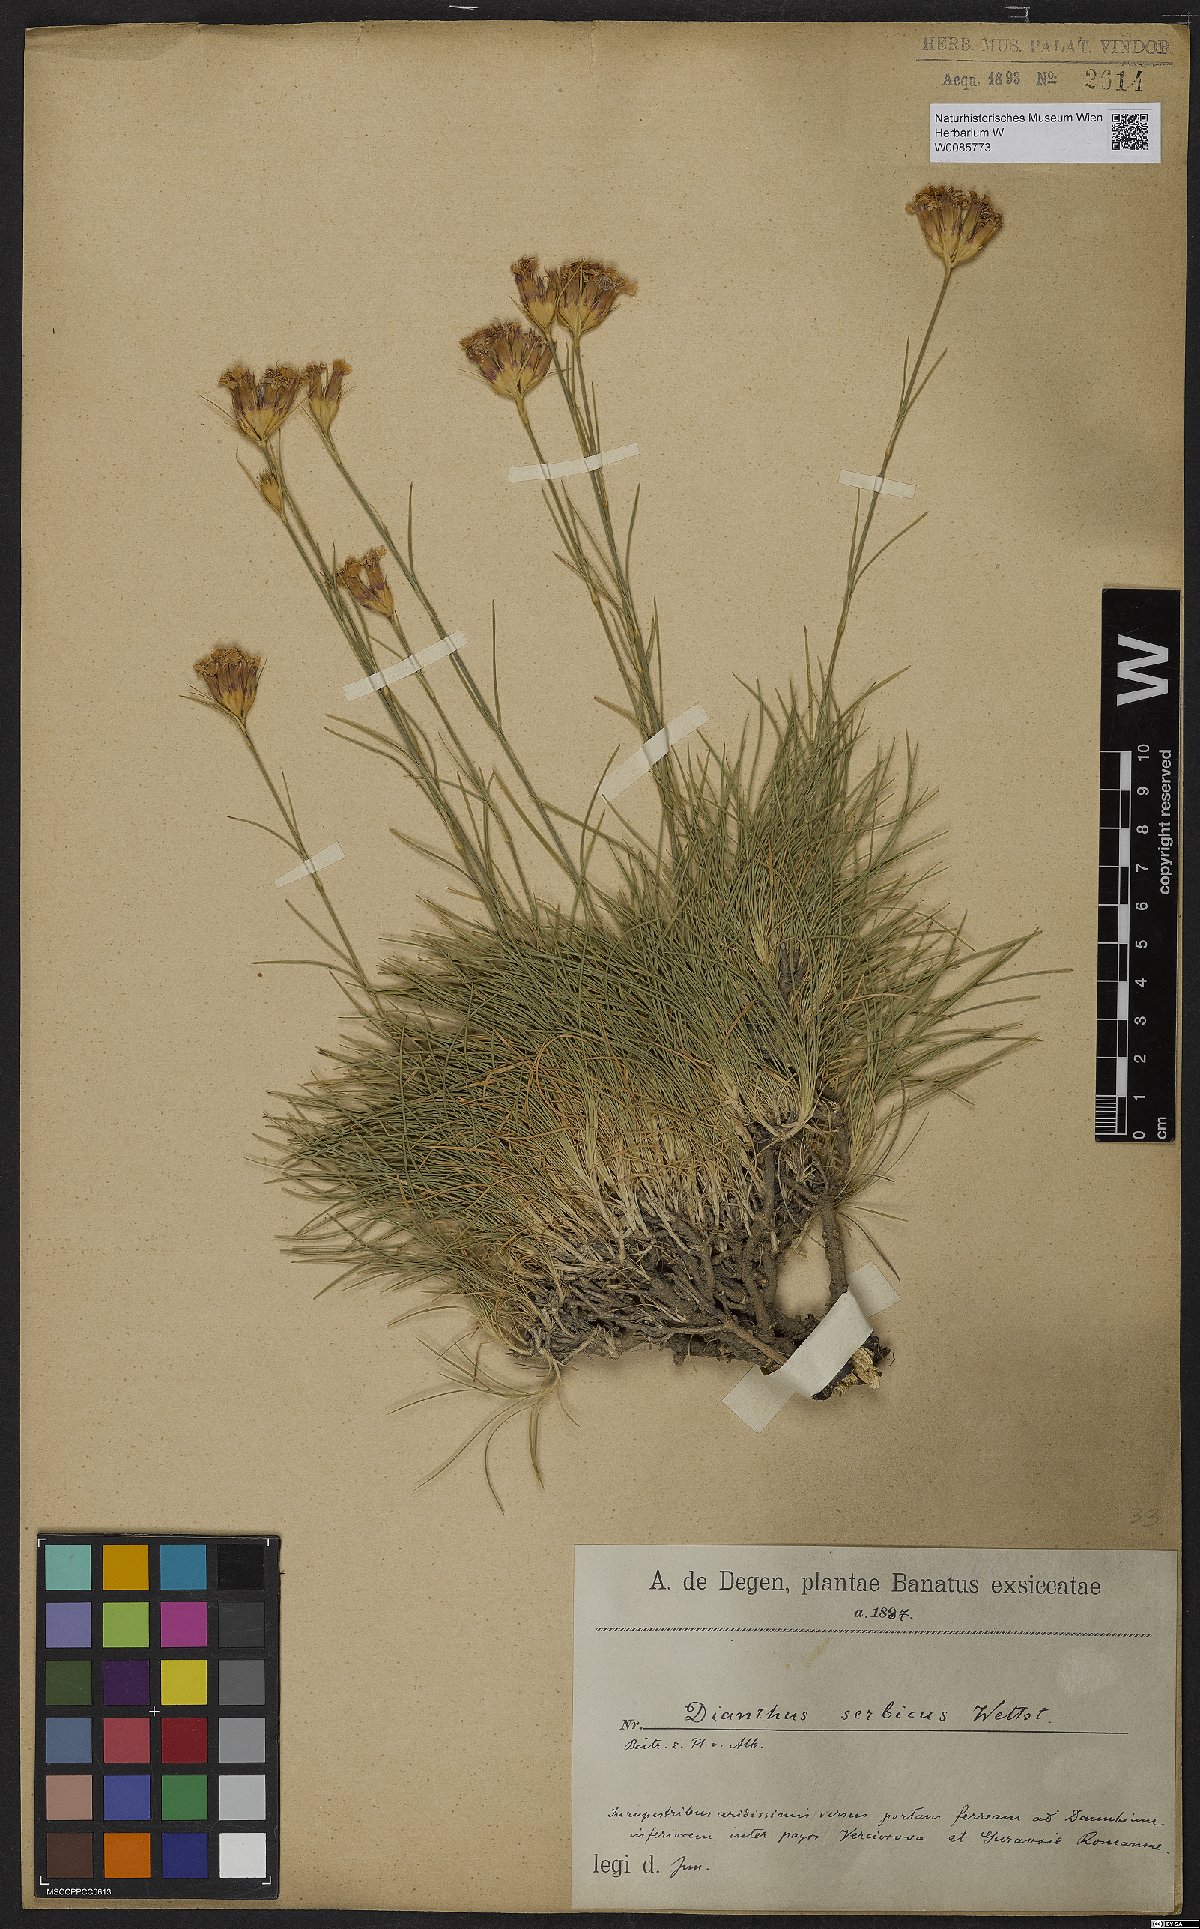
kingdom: Plantae
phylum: Tracheophyta
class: Magnoliopsida
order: Caryophyllales
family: Caryophyllaceae
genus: Dianthus
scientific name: Dianthus pinifolius
